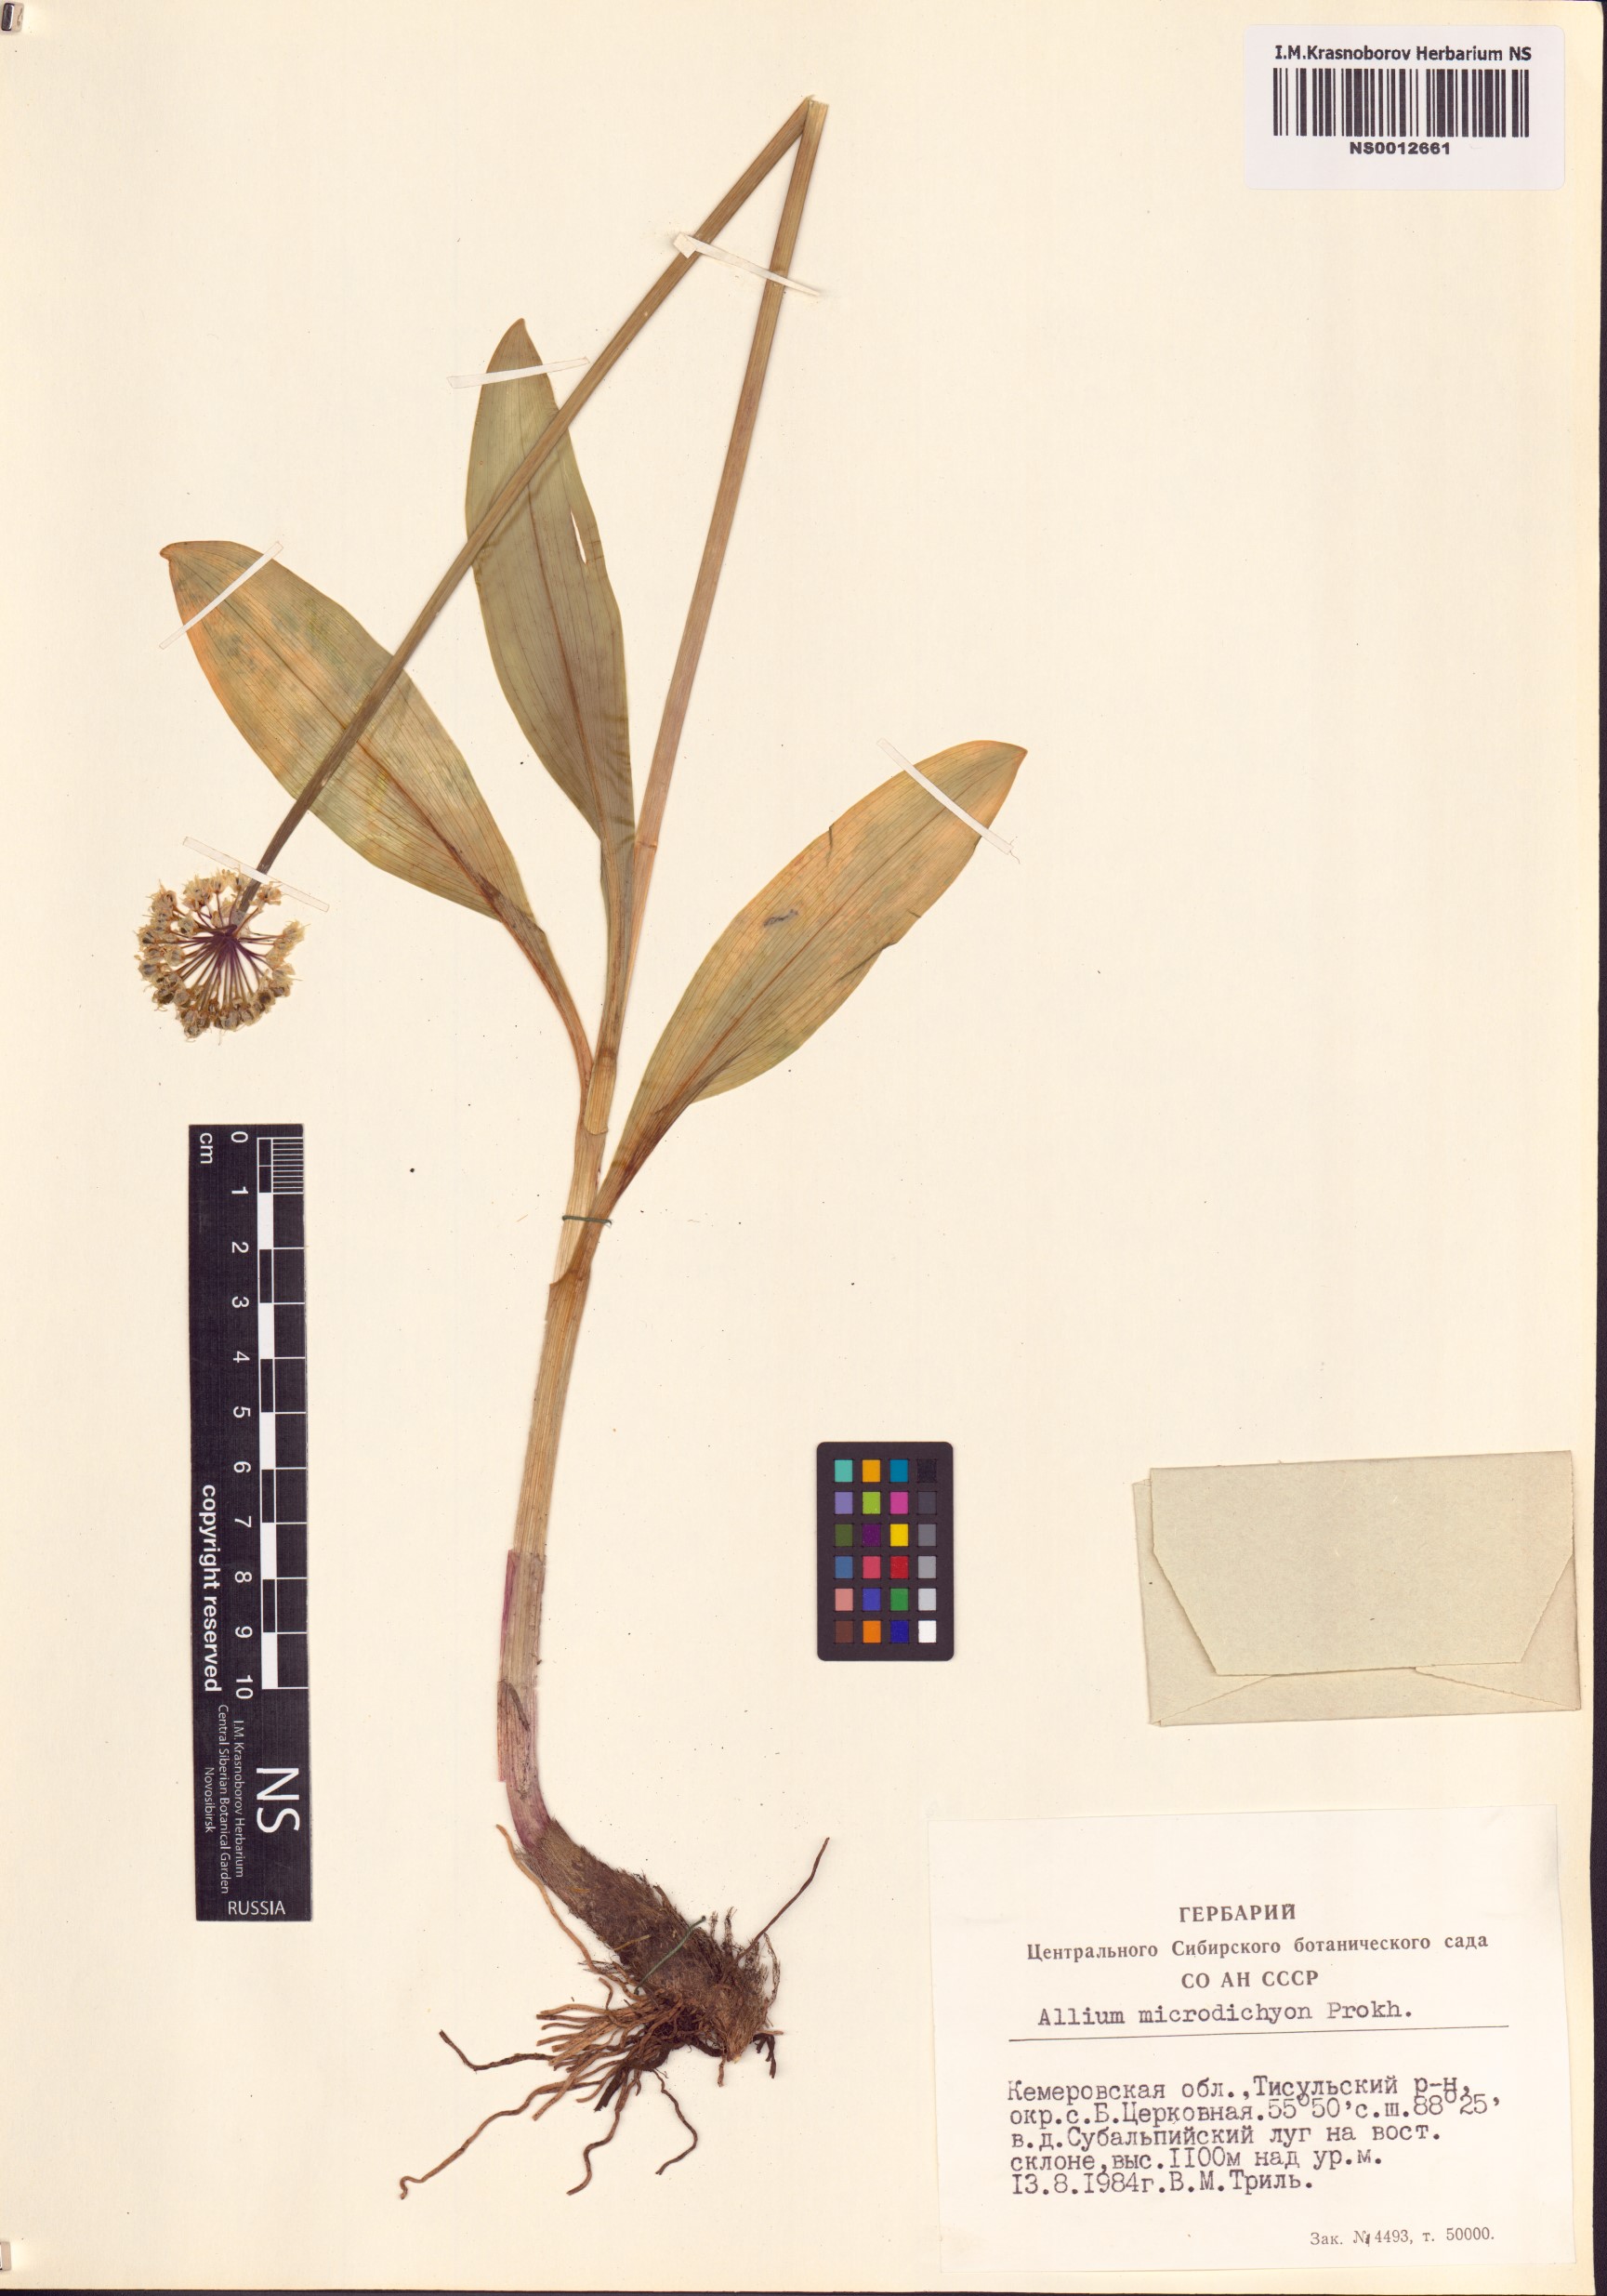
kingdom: Plantae
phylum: Tracheophyta
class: Liliopsida
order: Asparagales
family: Amaryllidaceae
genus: Allium
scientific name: Allium microdictyon
